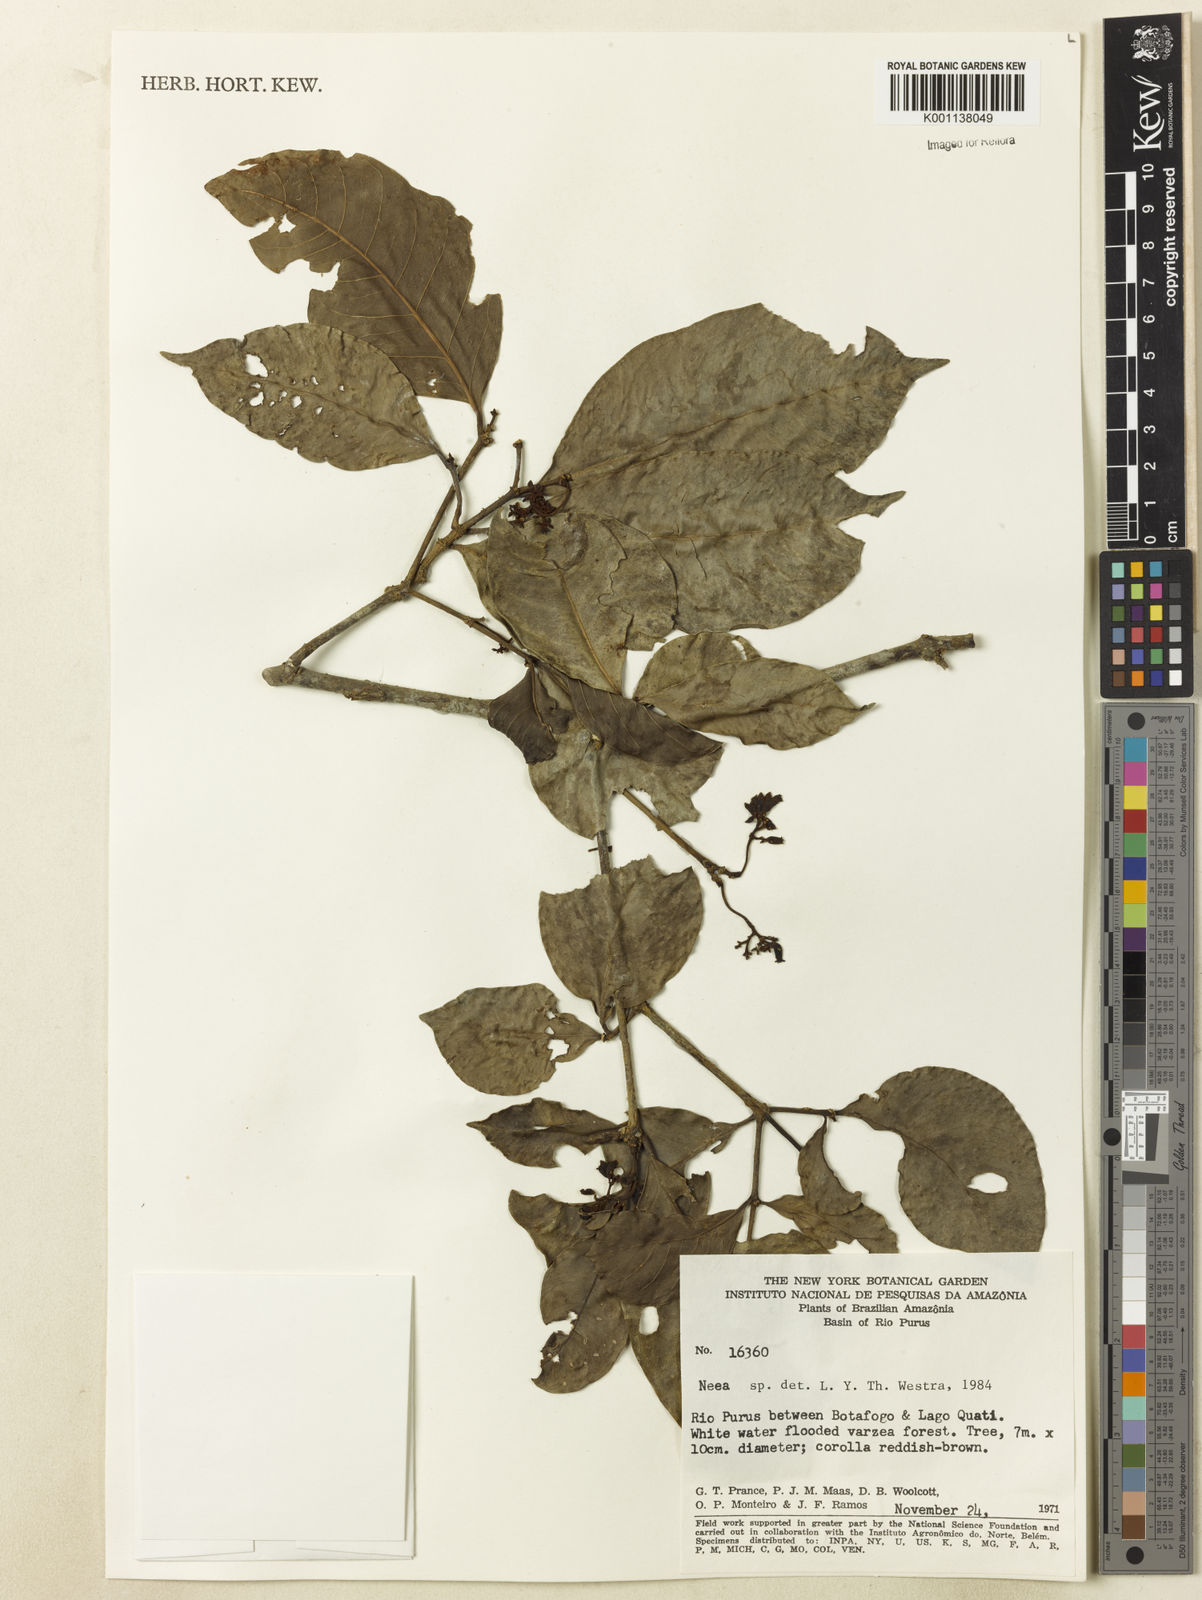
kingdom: Plantae
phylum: Tracheophyta
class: Magnoliopsida
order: Caryophyllales
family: Nyctaginaceae
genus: Neea
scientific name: Neea
